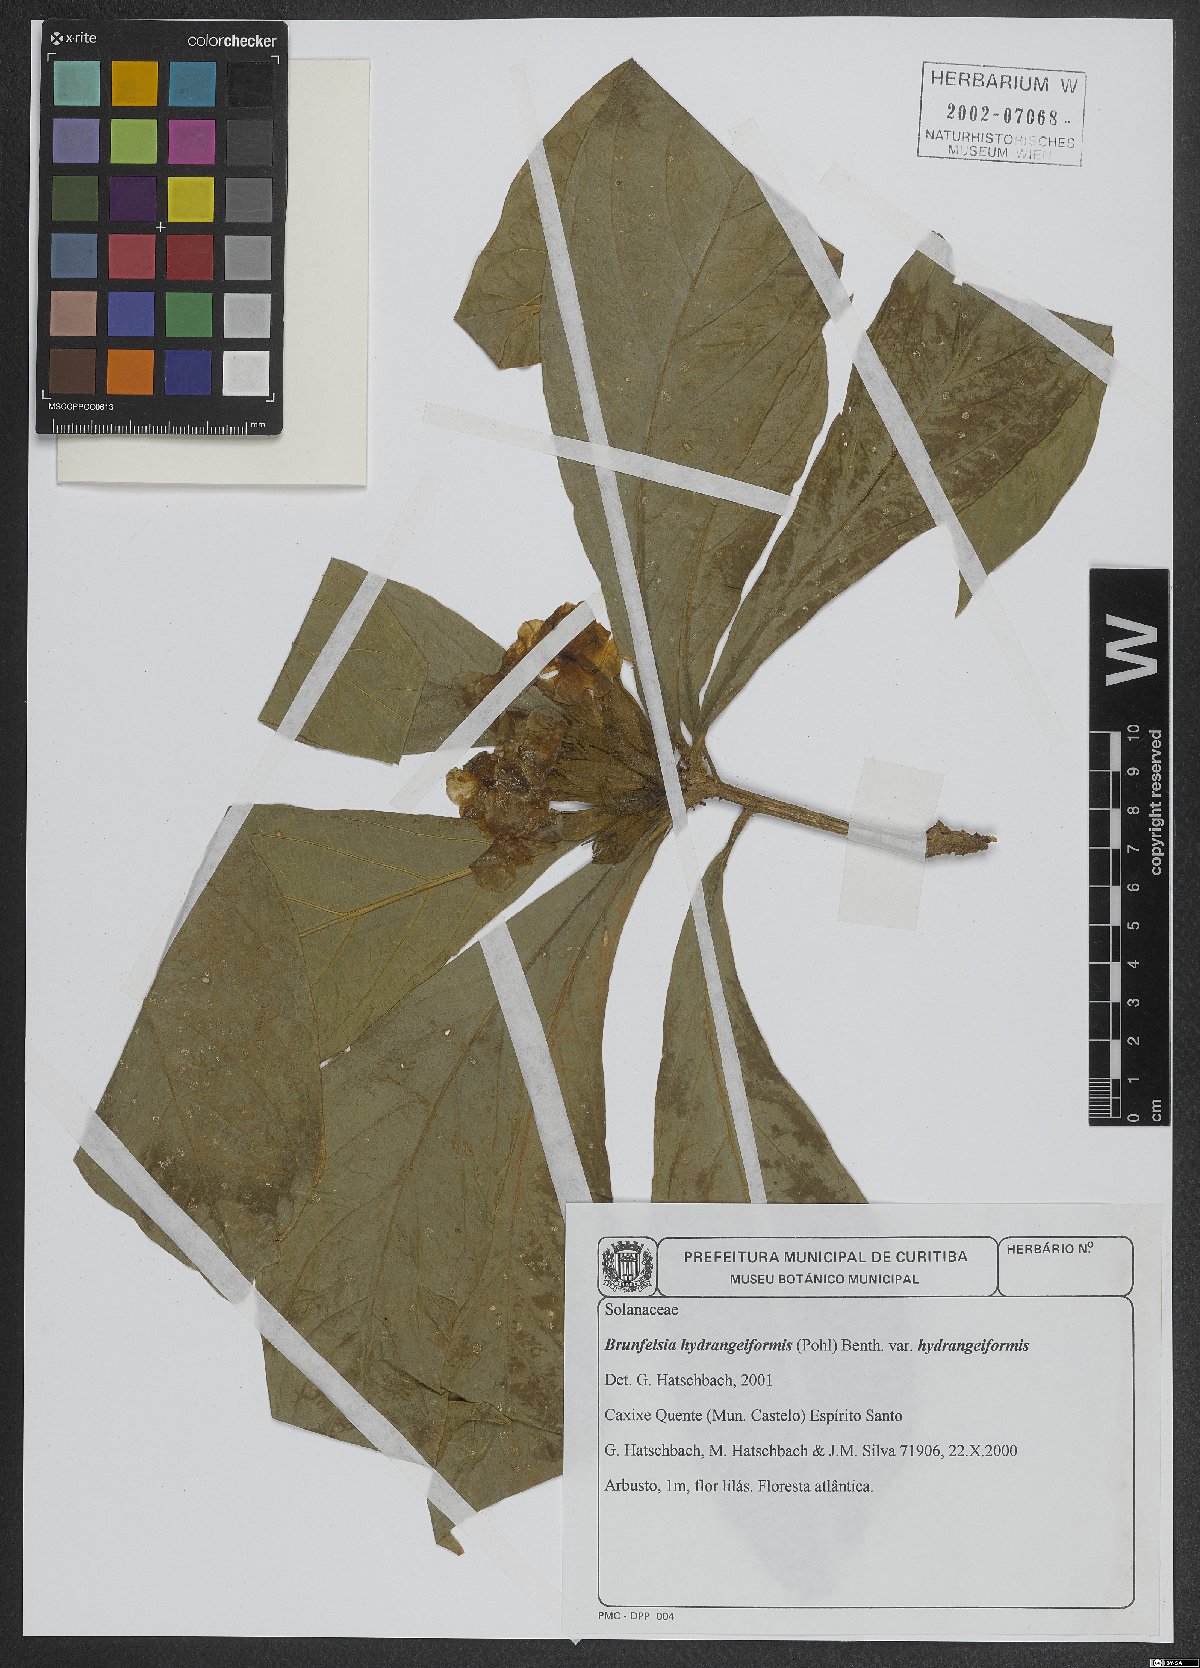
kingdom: Plantae
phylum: Tracheophyta
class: Magnoliopsida
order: Solanales
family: Solanaceae
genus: Brunfelsia
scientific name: Brunfelsia hydrangeiformis
